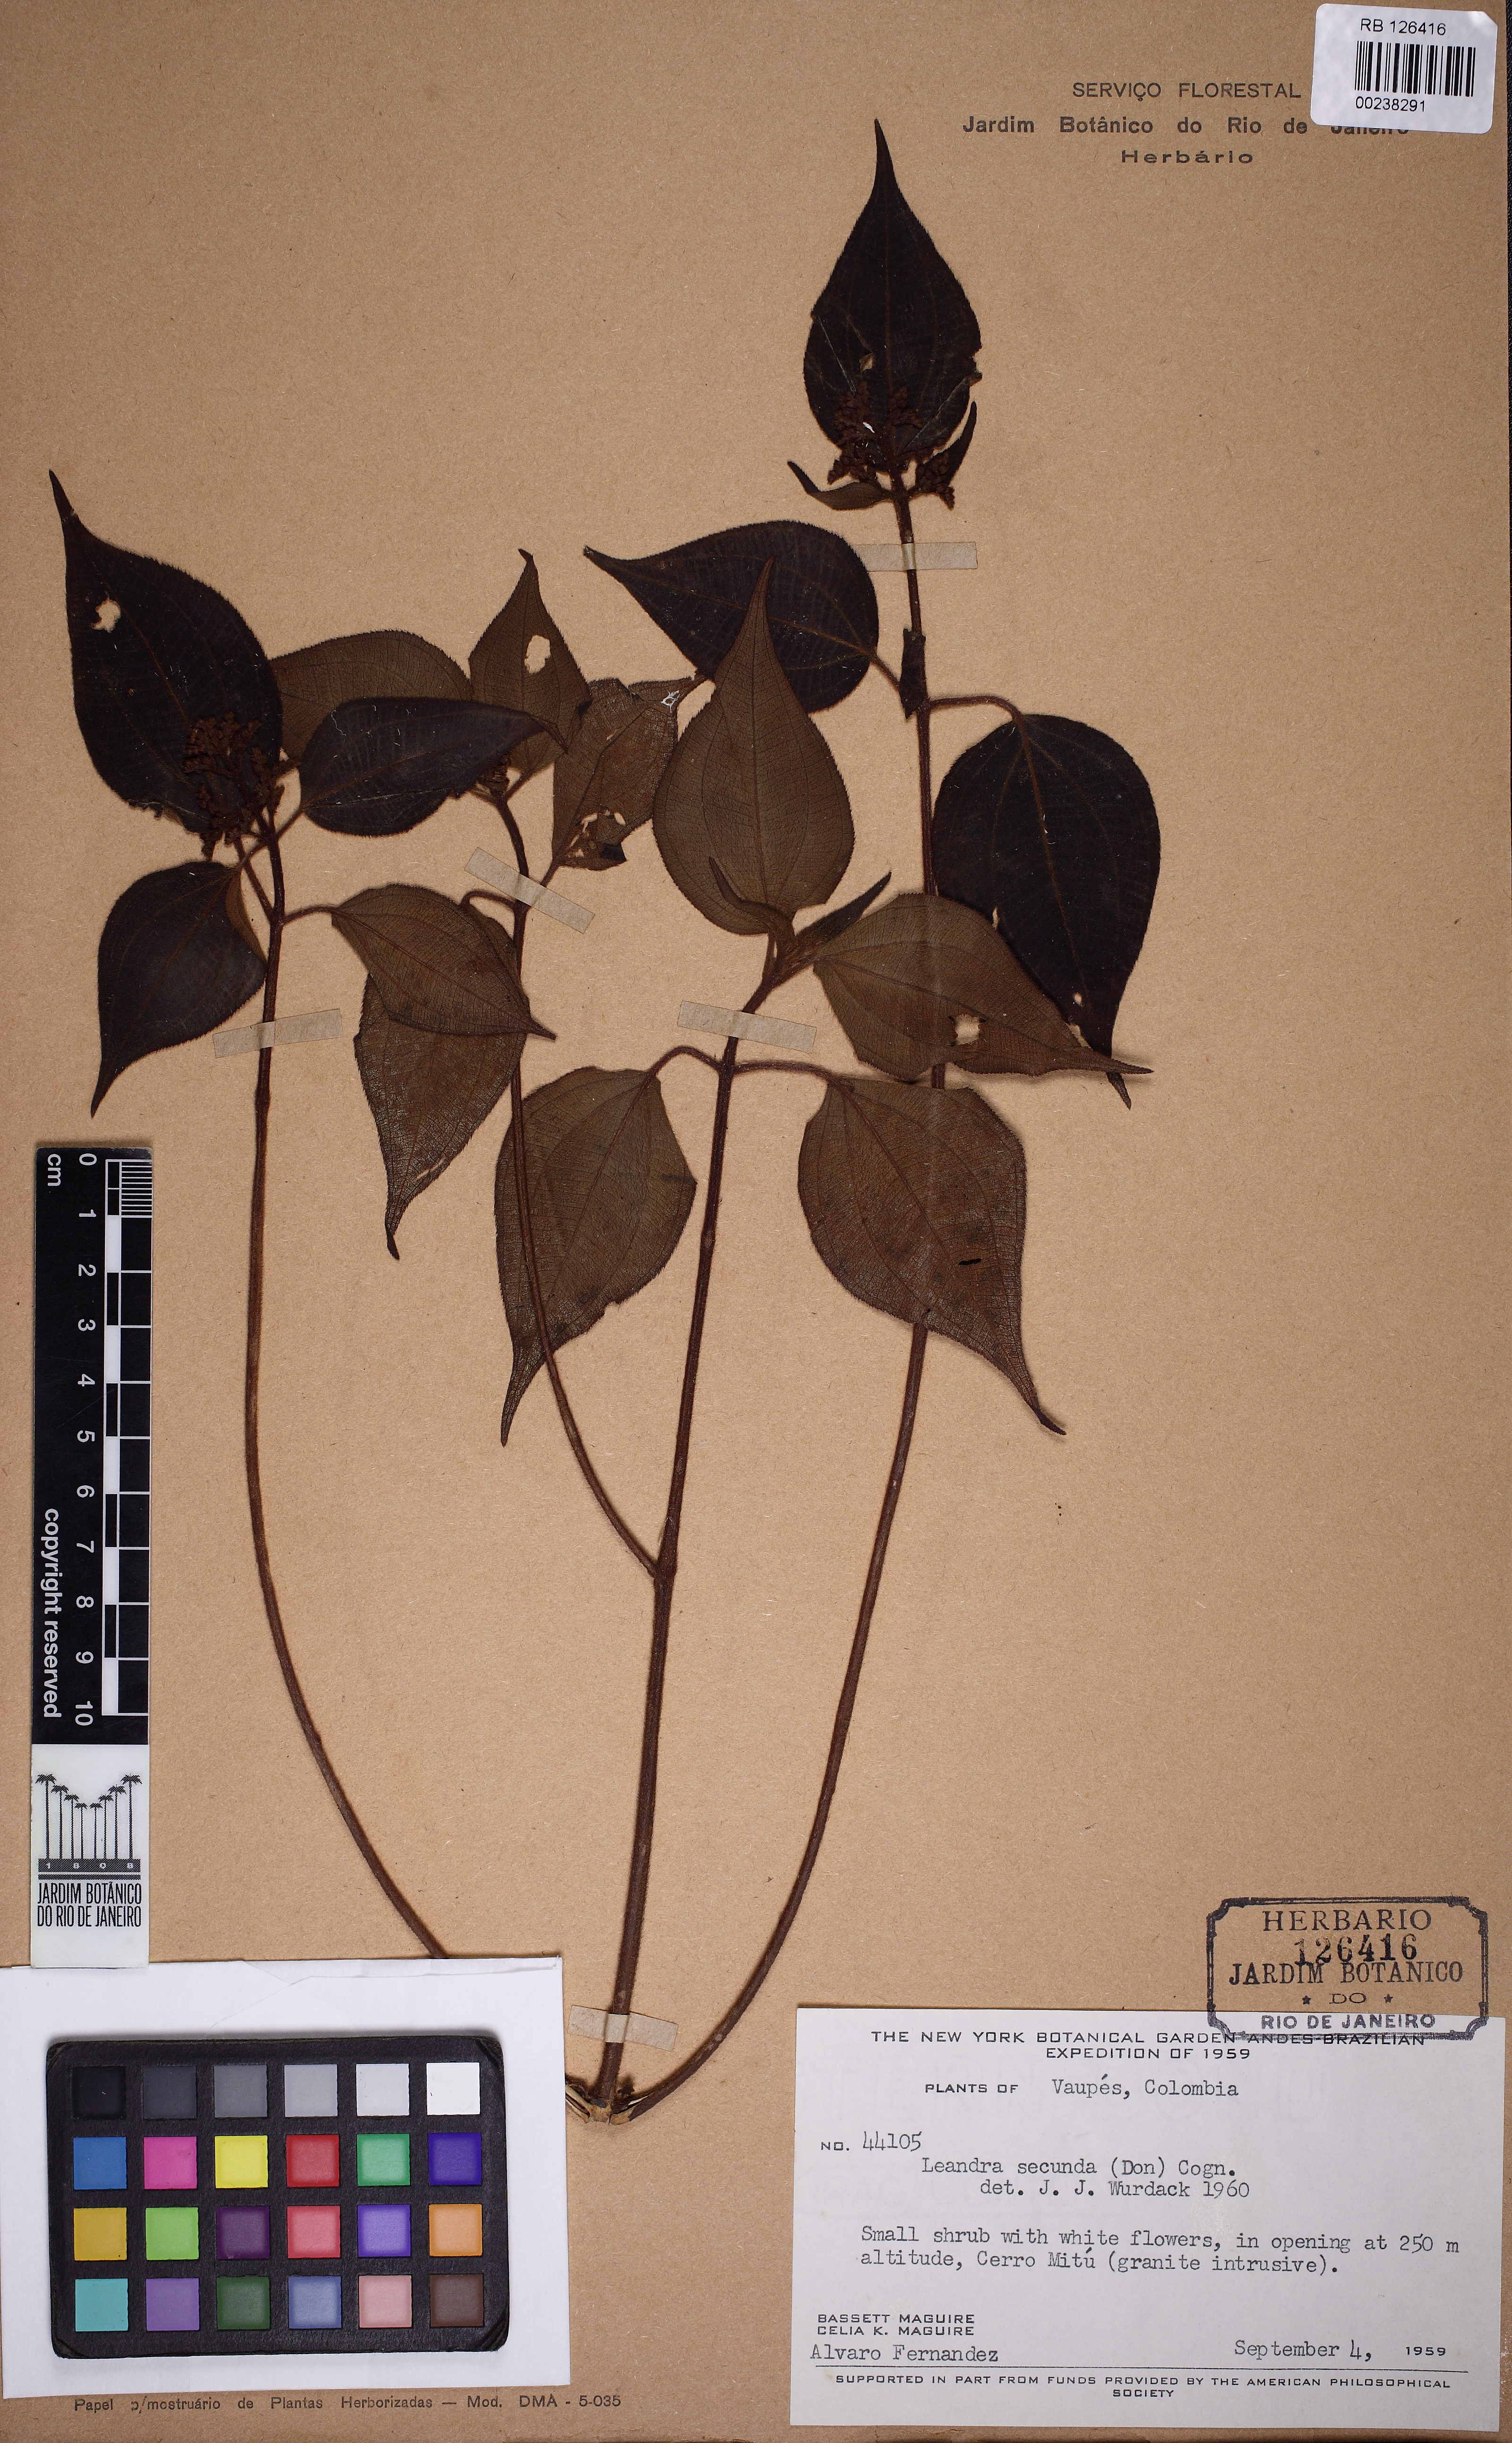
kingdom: Plantae
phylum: Tracheophyta
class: Magnoliopsida
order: Myrtales
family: Melastomataceae
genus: Miconia
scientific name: Miconia neosecunda
